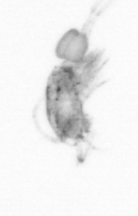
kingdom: Animalia
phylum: Arthropoda
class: Copepoda
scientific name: Copepoda
